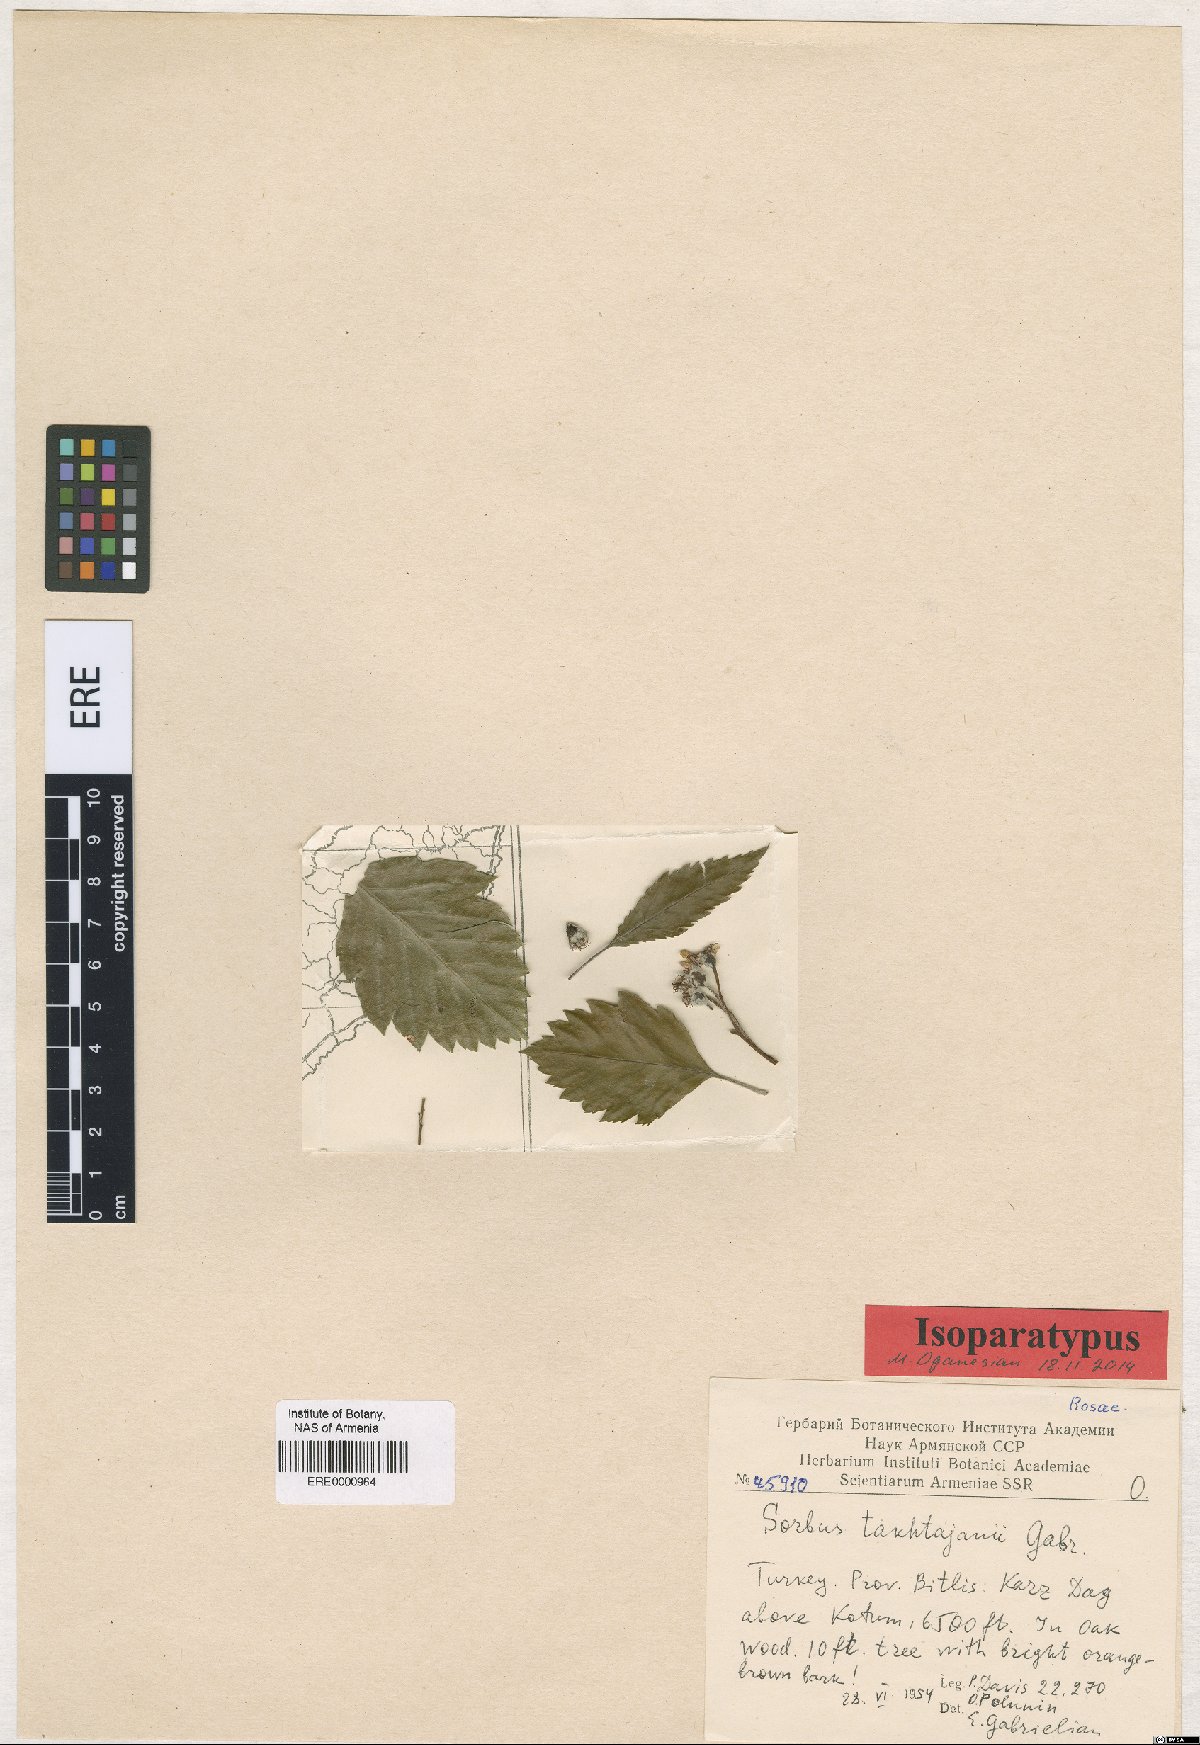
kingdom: Plantae
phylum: Tracheophyta
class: Magnoliopsida
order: Rosales
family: Rosaceae
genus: Hedlundia
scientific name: Hedlundia takhtajanii
